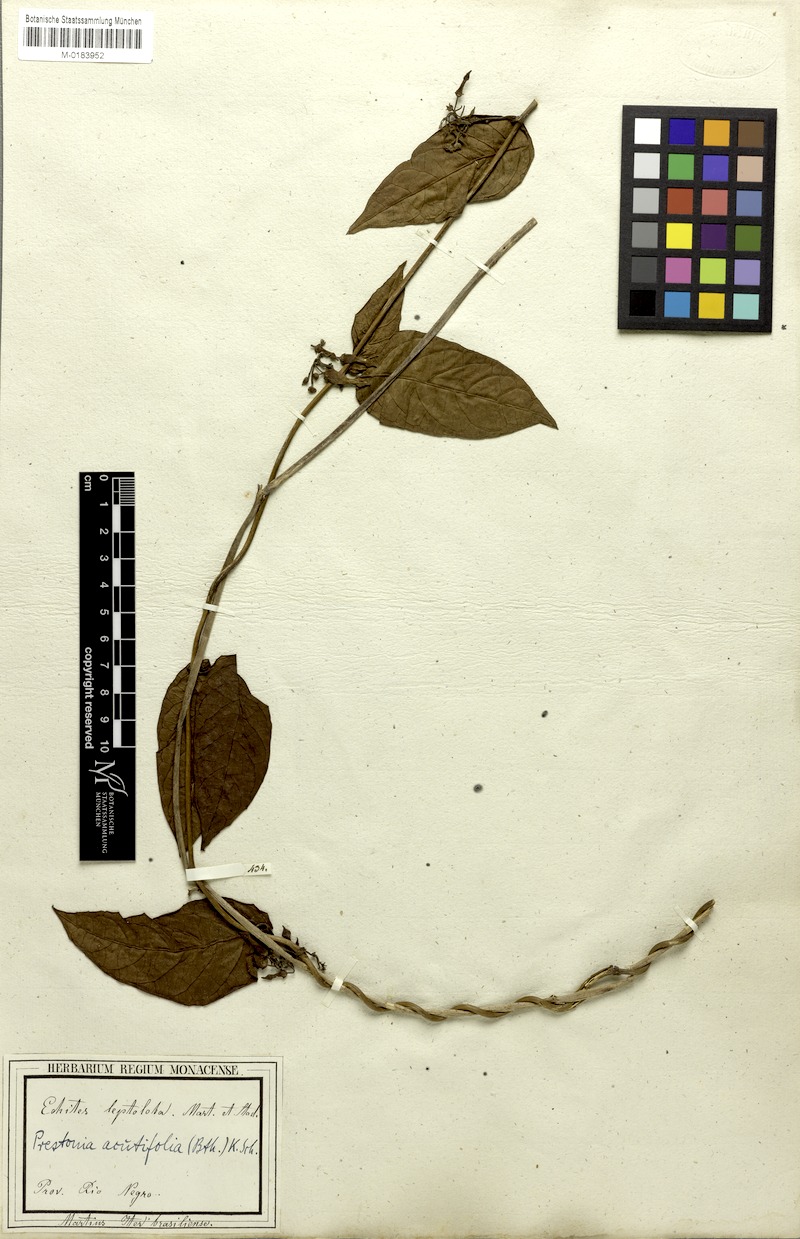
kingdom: Plantae
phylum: Tracheophyta
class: Magnoliopsida
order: Gentianales
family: Apocynaceae
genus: Prestonia
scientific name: Prestonia quinquangularis
